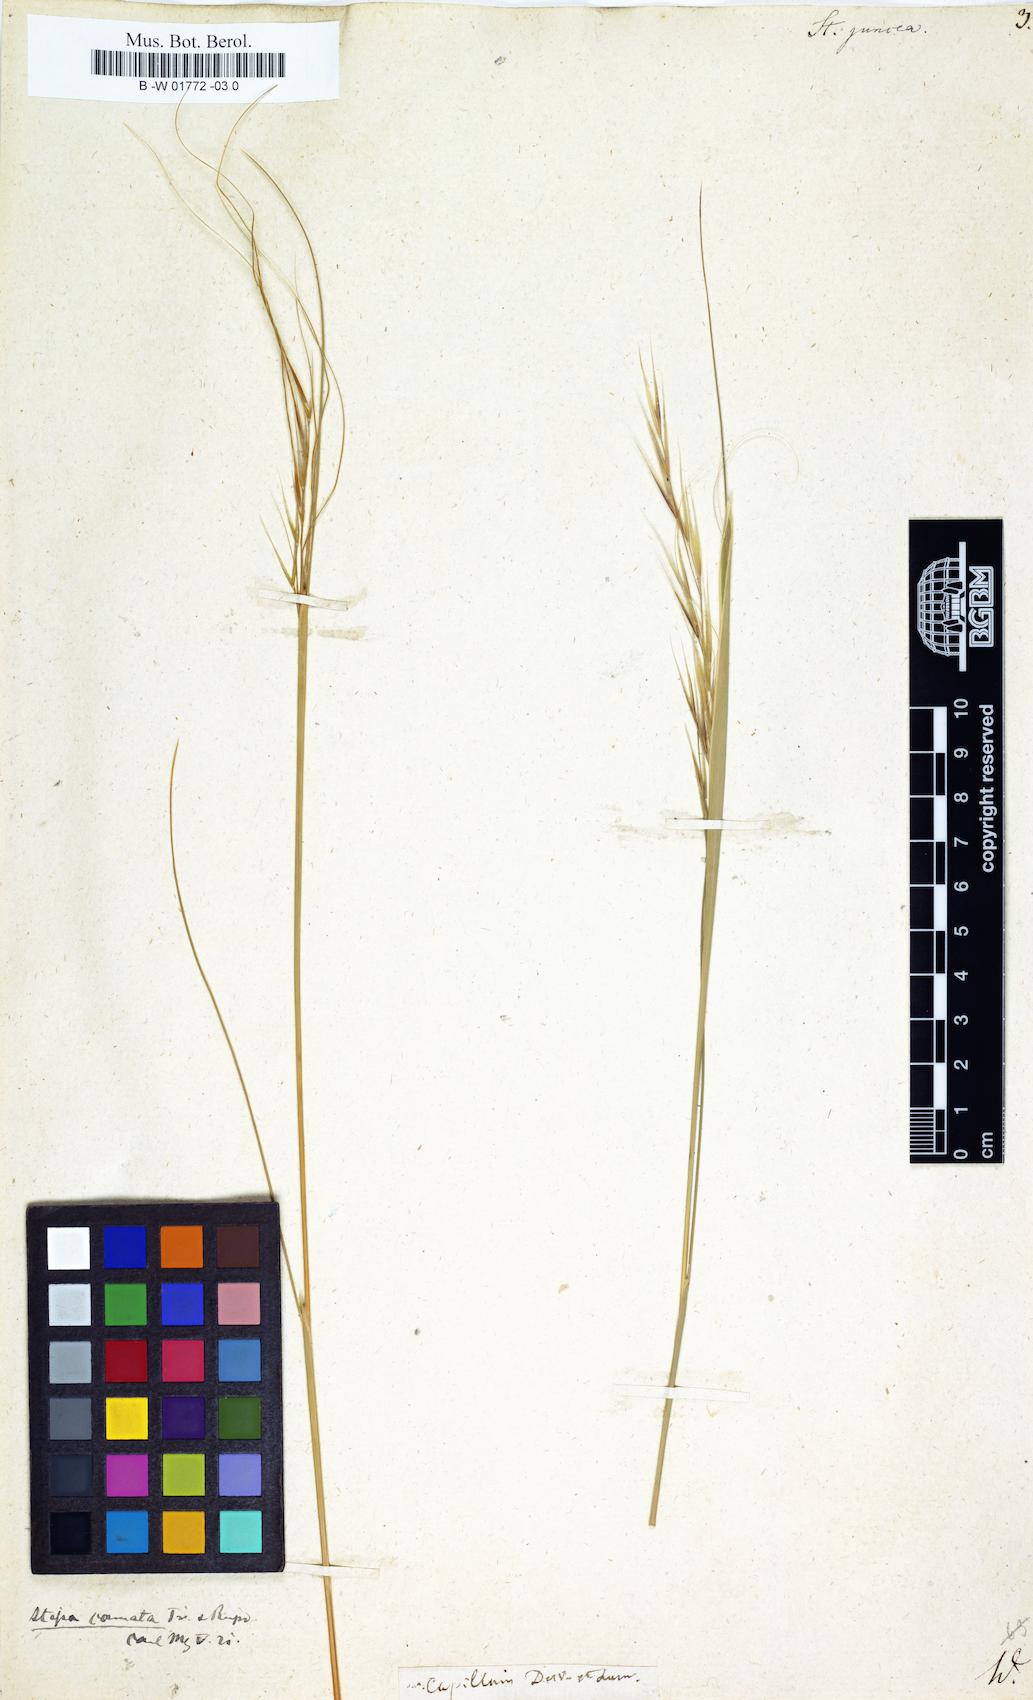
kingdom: Plantae
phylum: Tracheophyta
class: Liliopsida
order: Poales
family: Poaceae
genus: Stipa
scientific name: Stipa juncea
